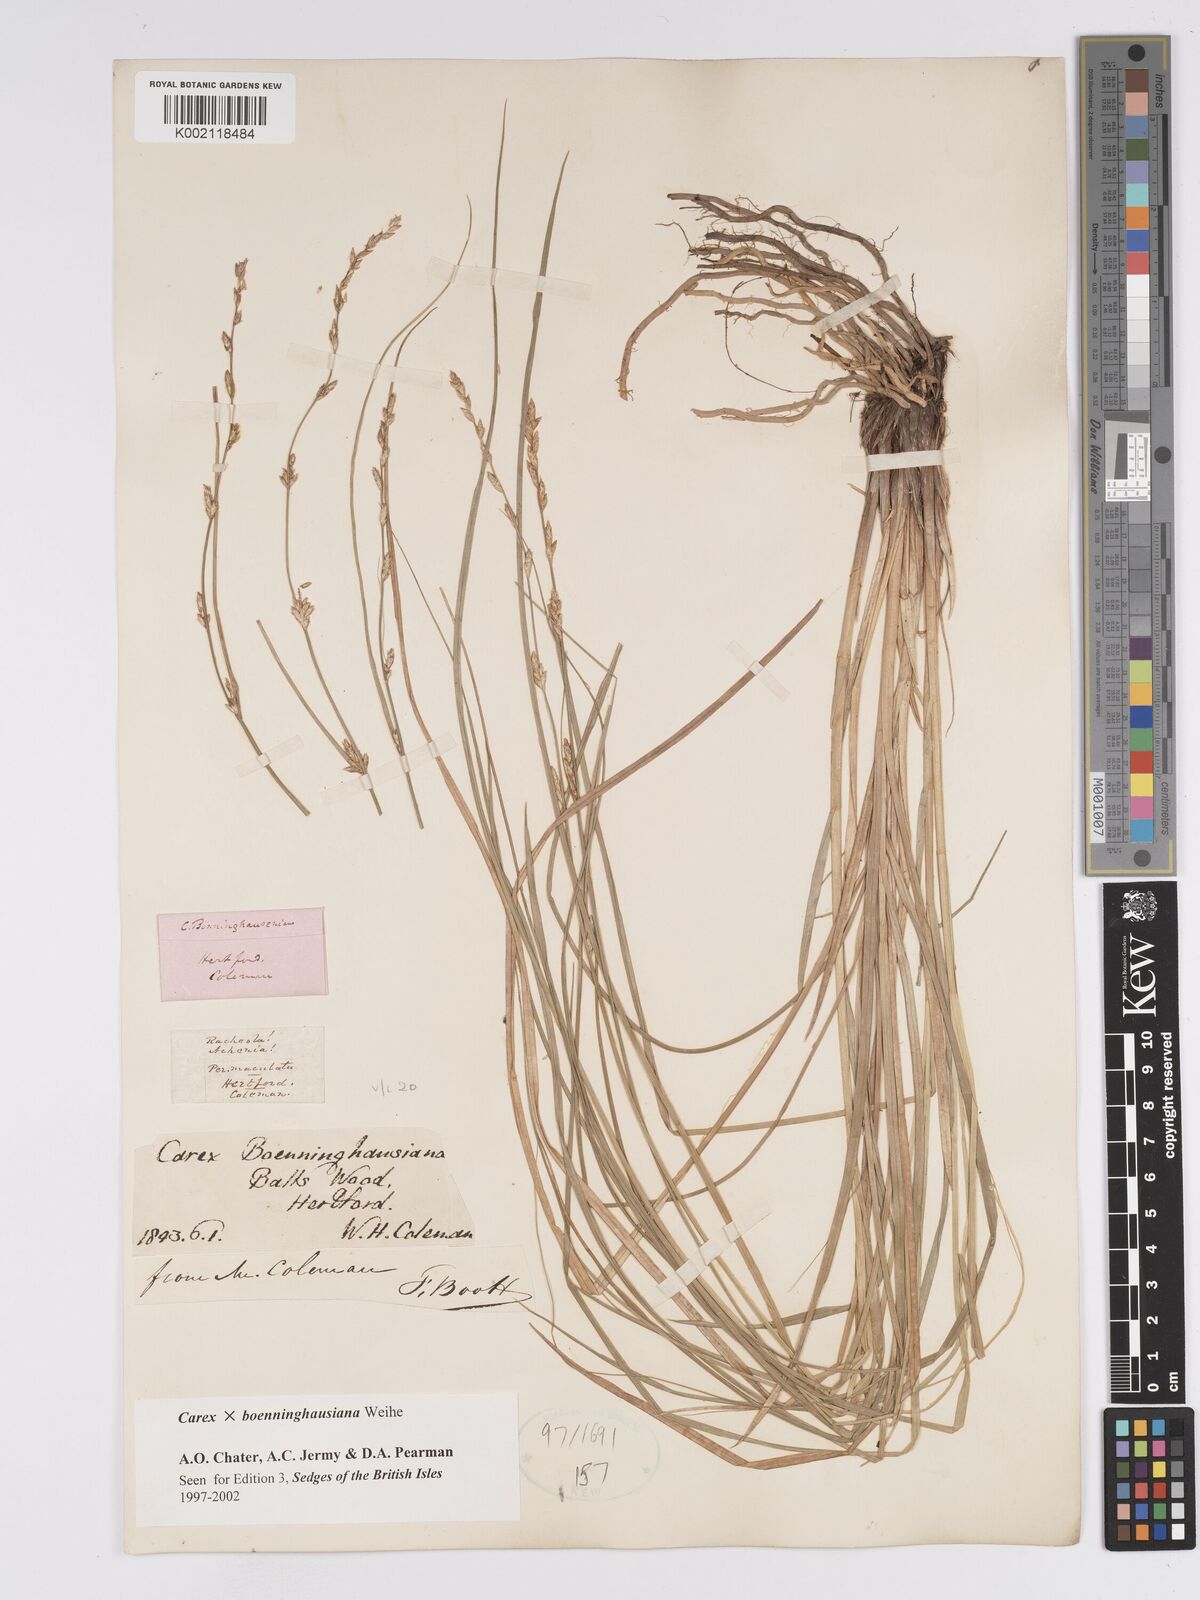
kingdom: Plantae
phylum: Tracheophyta
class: Liliopsida
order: Poales
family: Cyperaceae
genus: Carex
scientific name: Carex boenninghausiana
